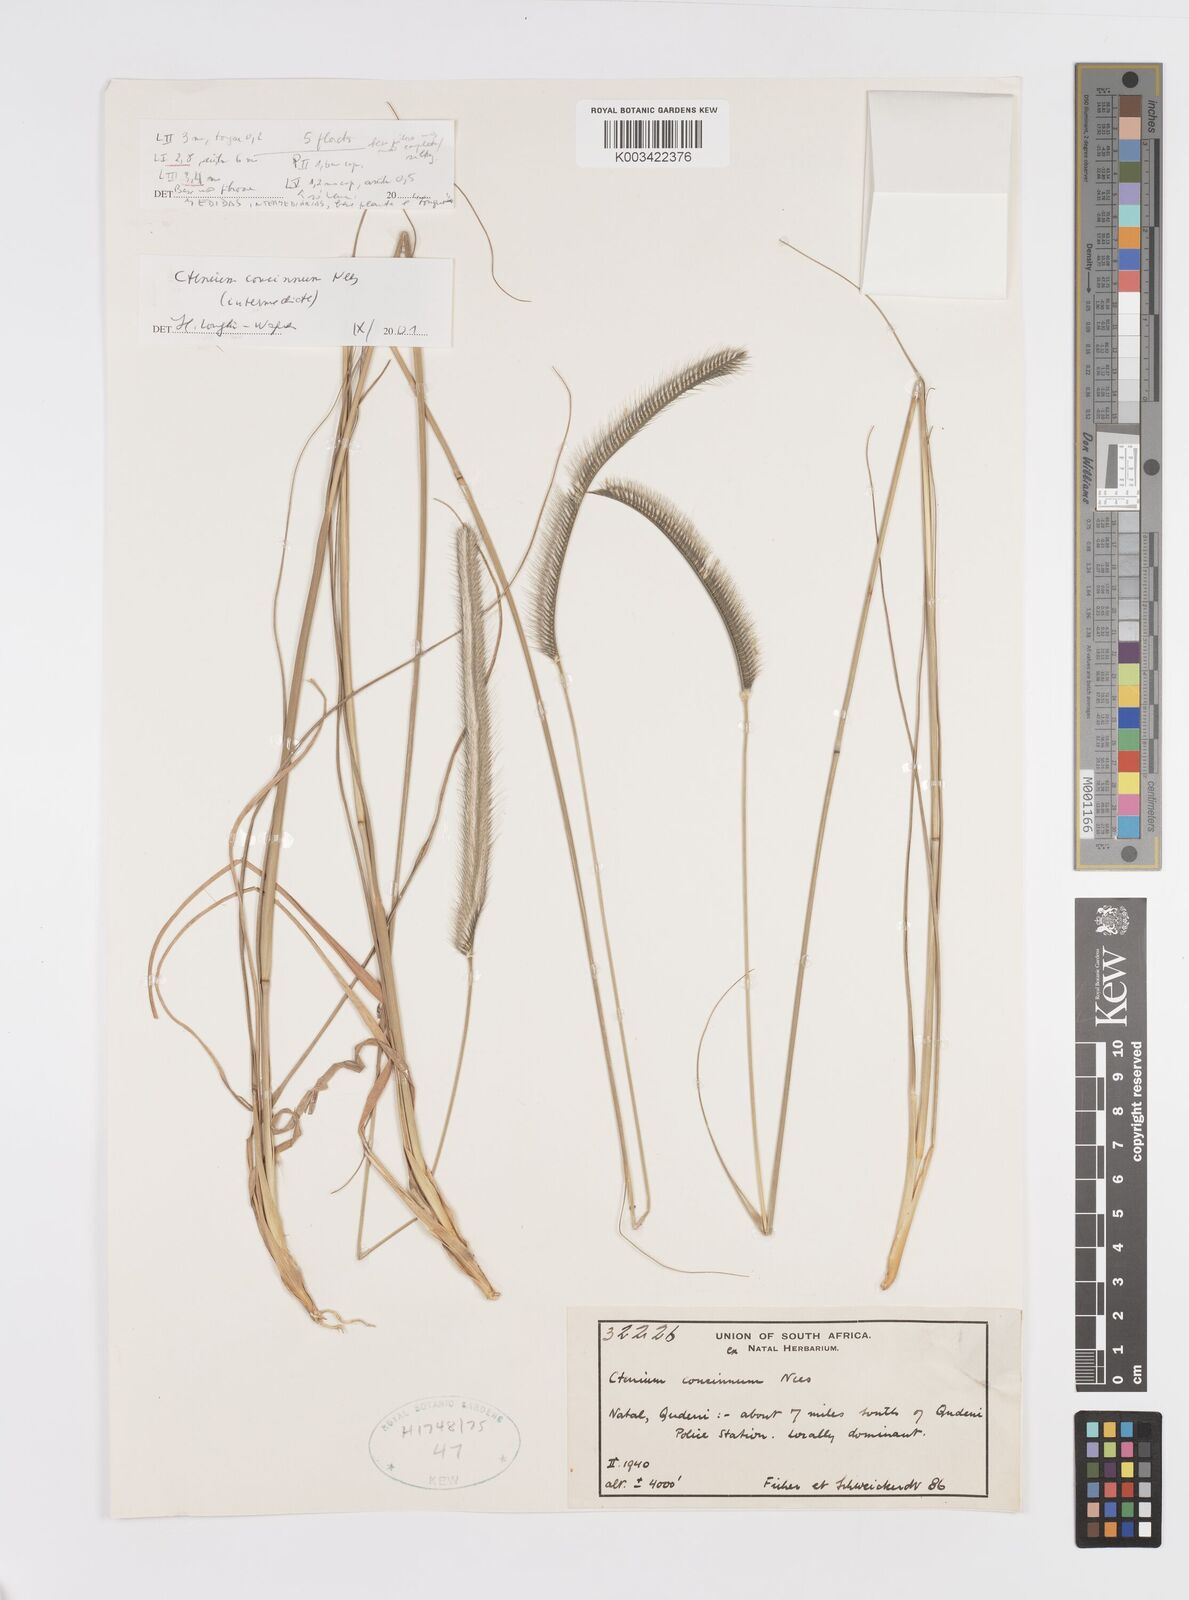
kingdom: Plantae
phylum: Tracheophyta
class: Liliopsida
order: Poales
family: Poaceae
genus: Ctenium
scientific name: Ctenium concinnum
